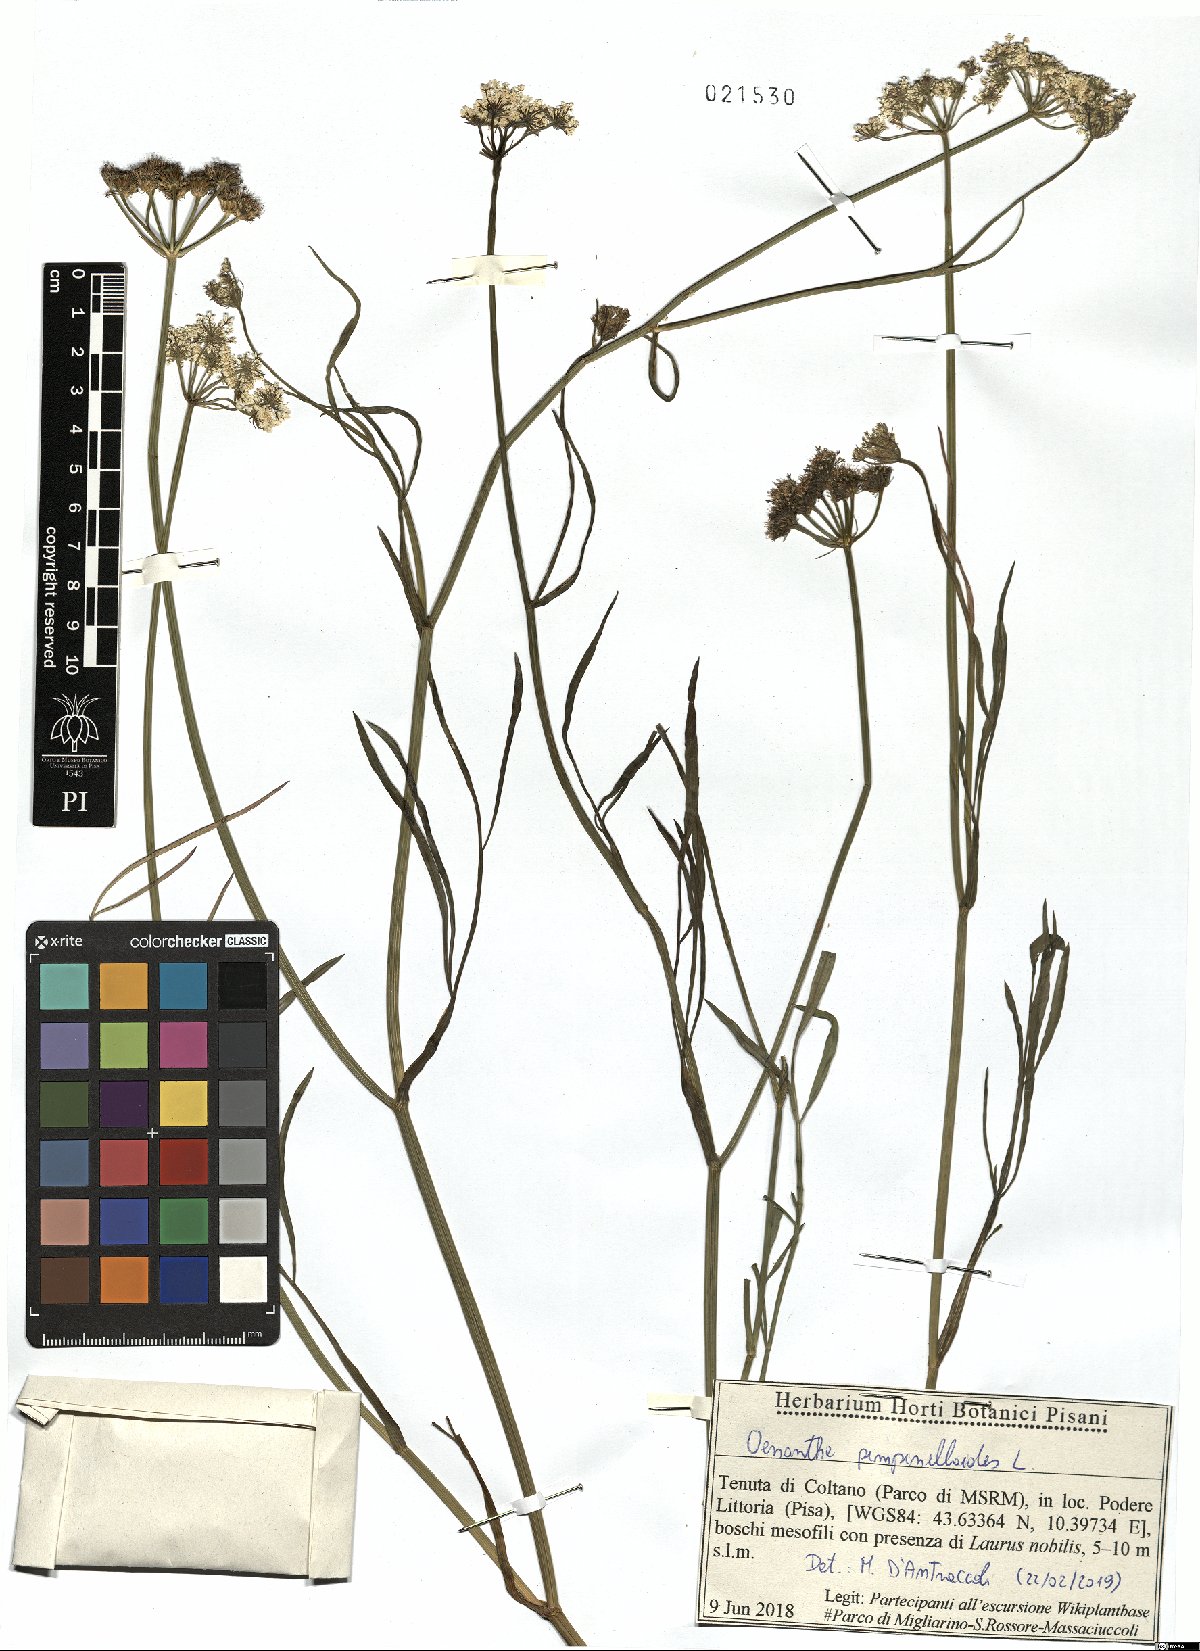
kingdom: Plantae
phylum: Tracheophyta
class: Magnoliopsida
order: Apiales
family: Apiaceae
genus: Oenanthe
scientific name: Oenanthe pimpinelloides
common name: Corky-fruited water-dropwort
